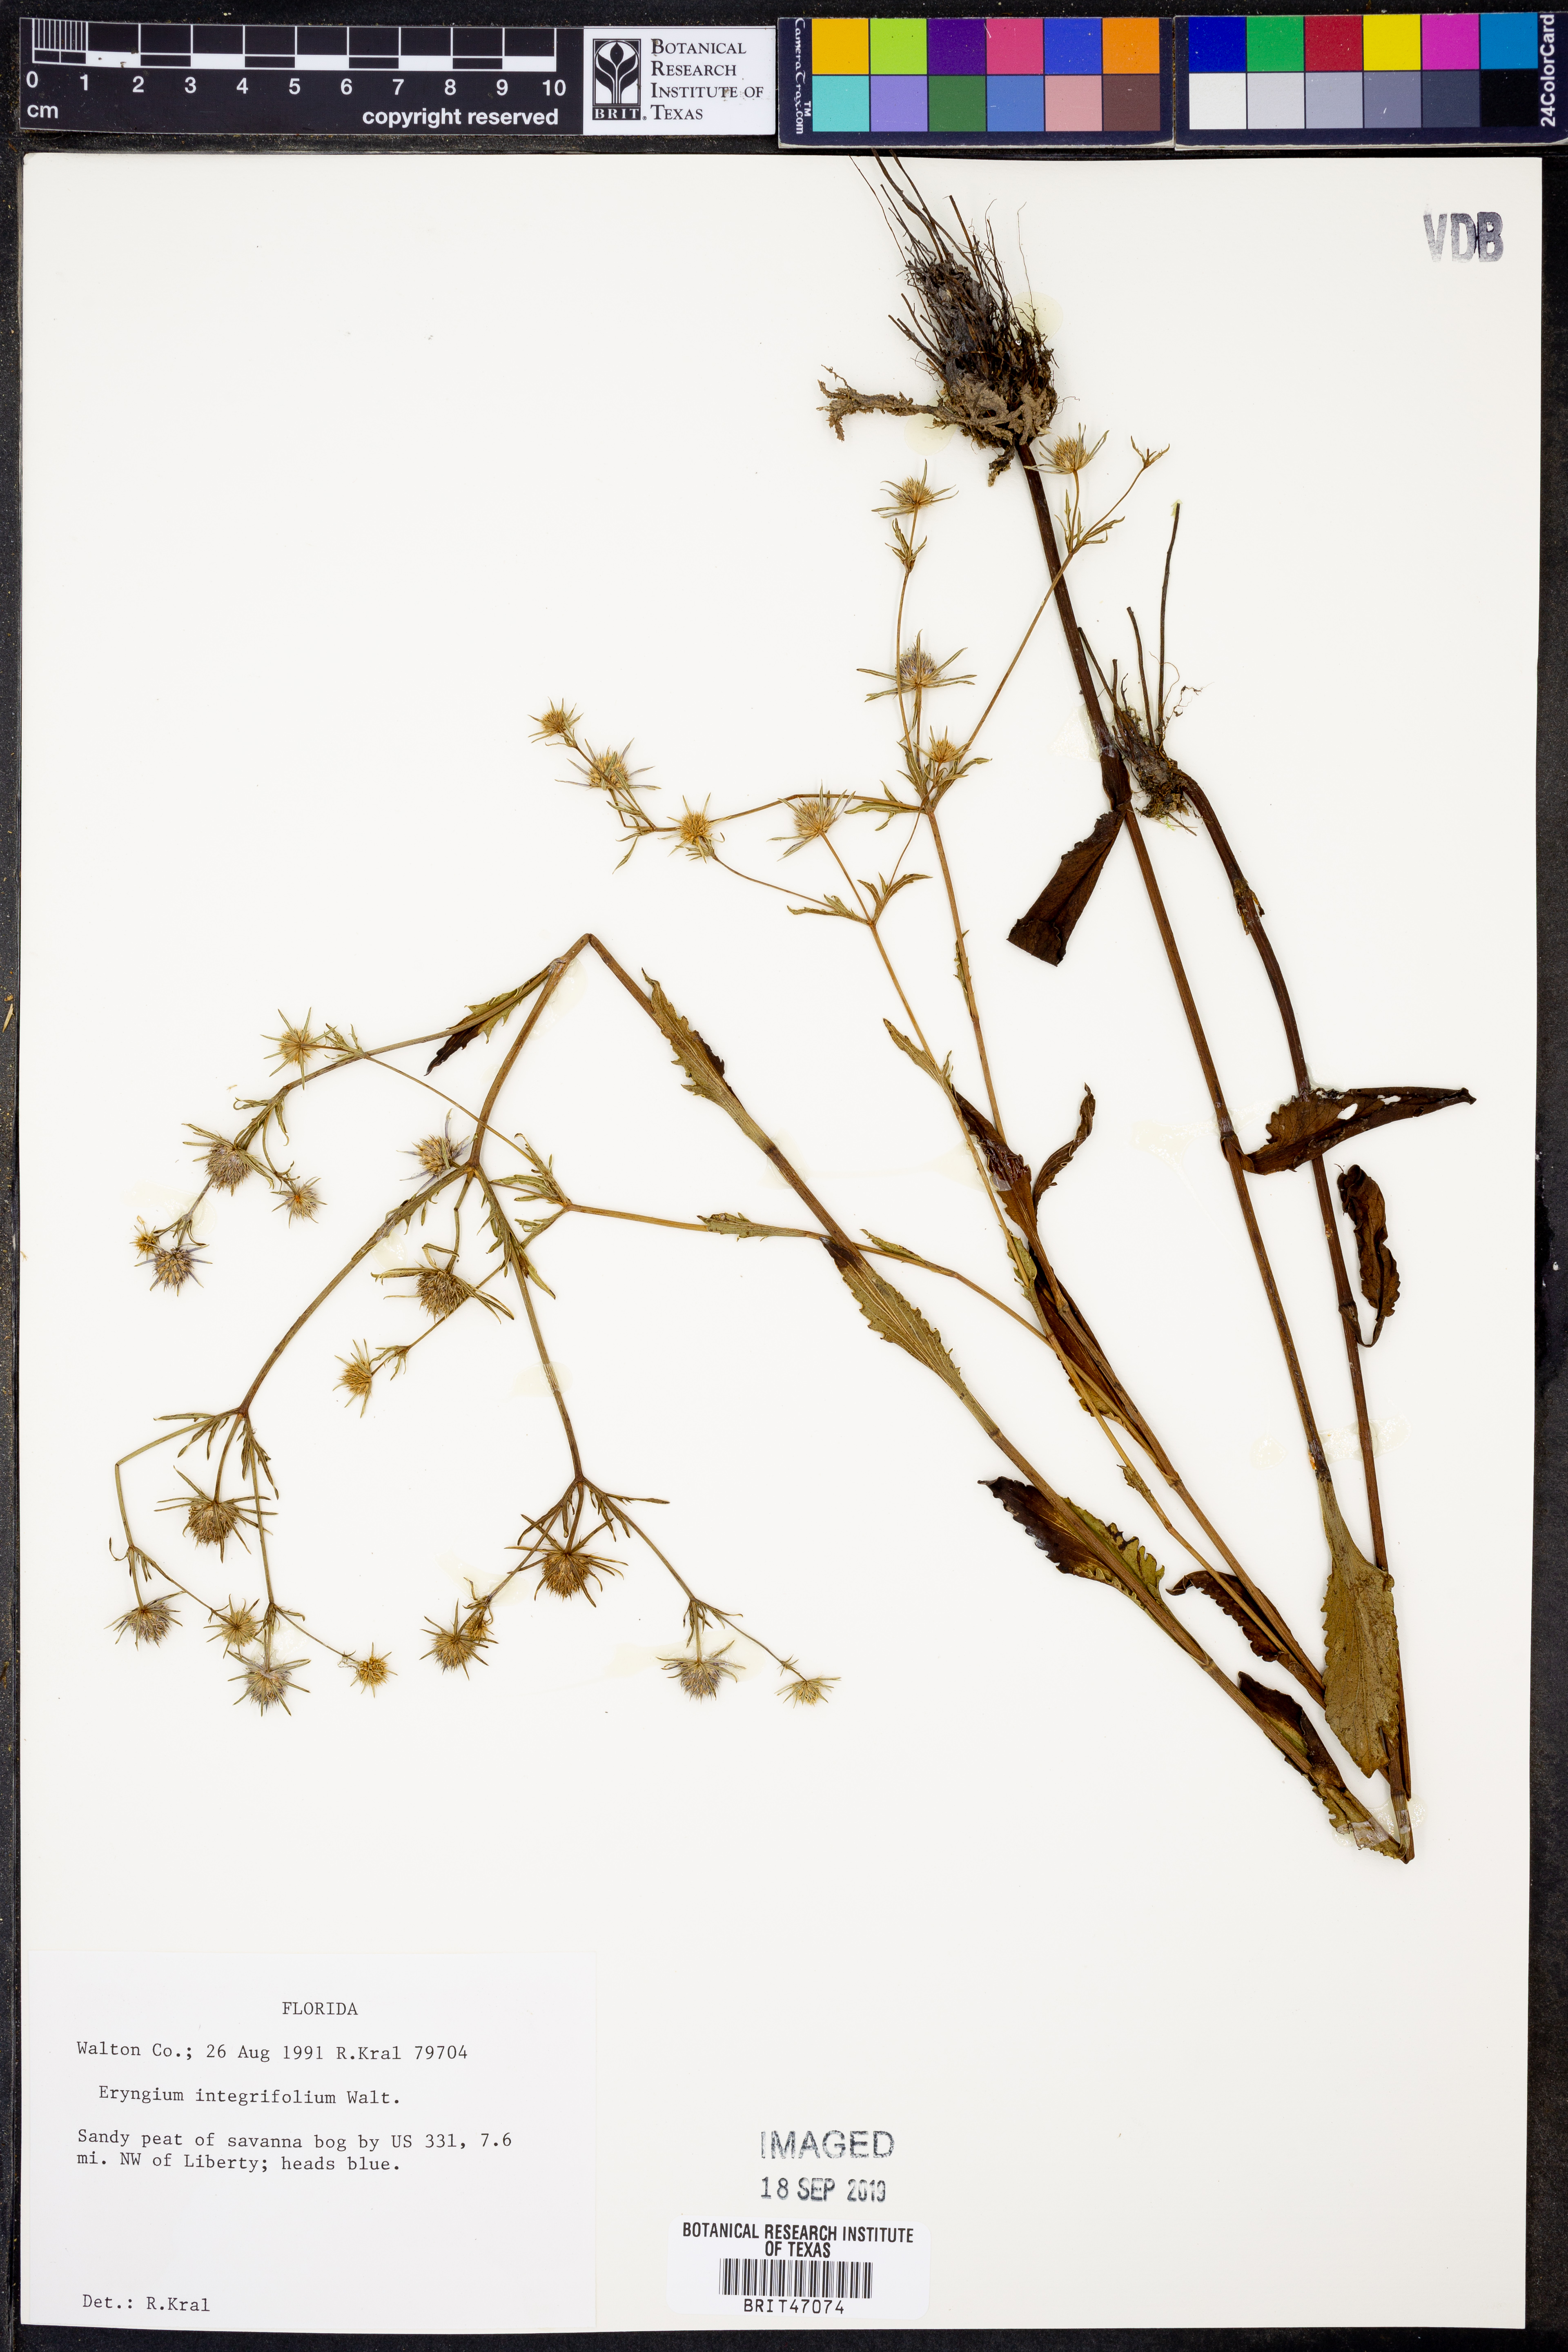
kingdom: Plantae
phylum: Tracheophyta
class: Magnoliopsida
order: Apiales
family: Apiaceae
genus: Eryngium
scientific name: Eryngium integrifolium
